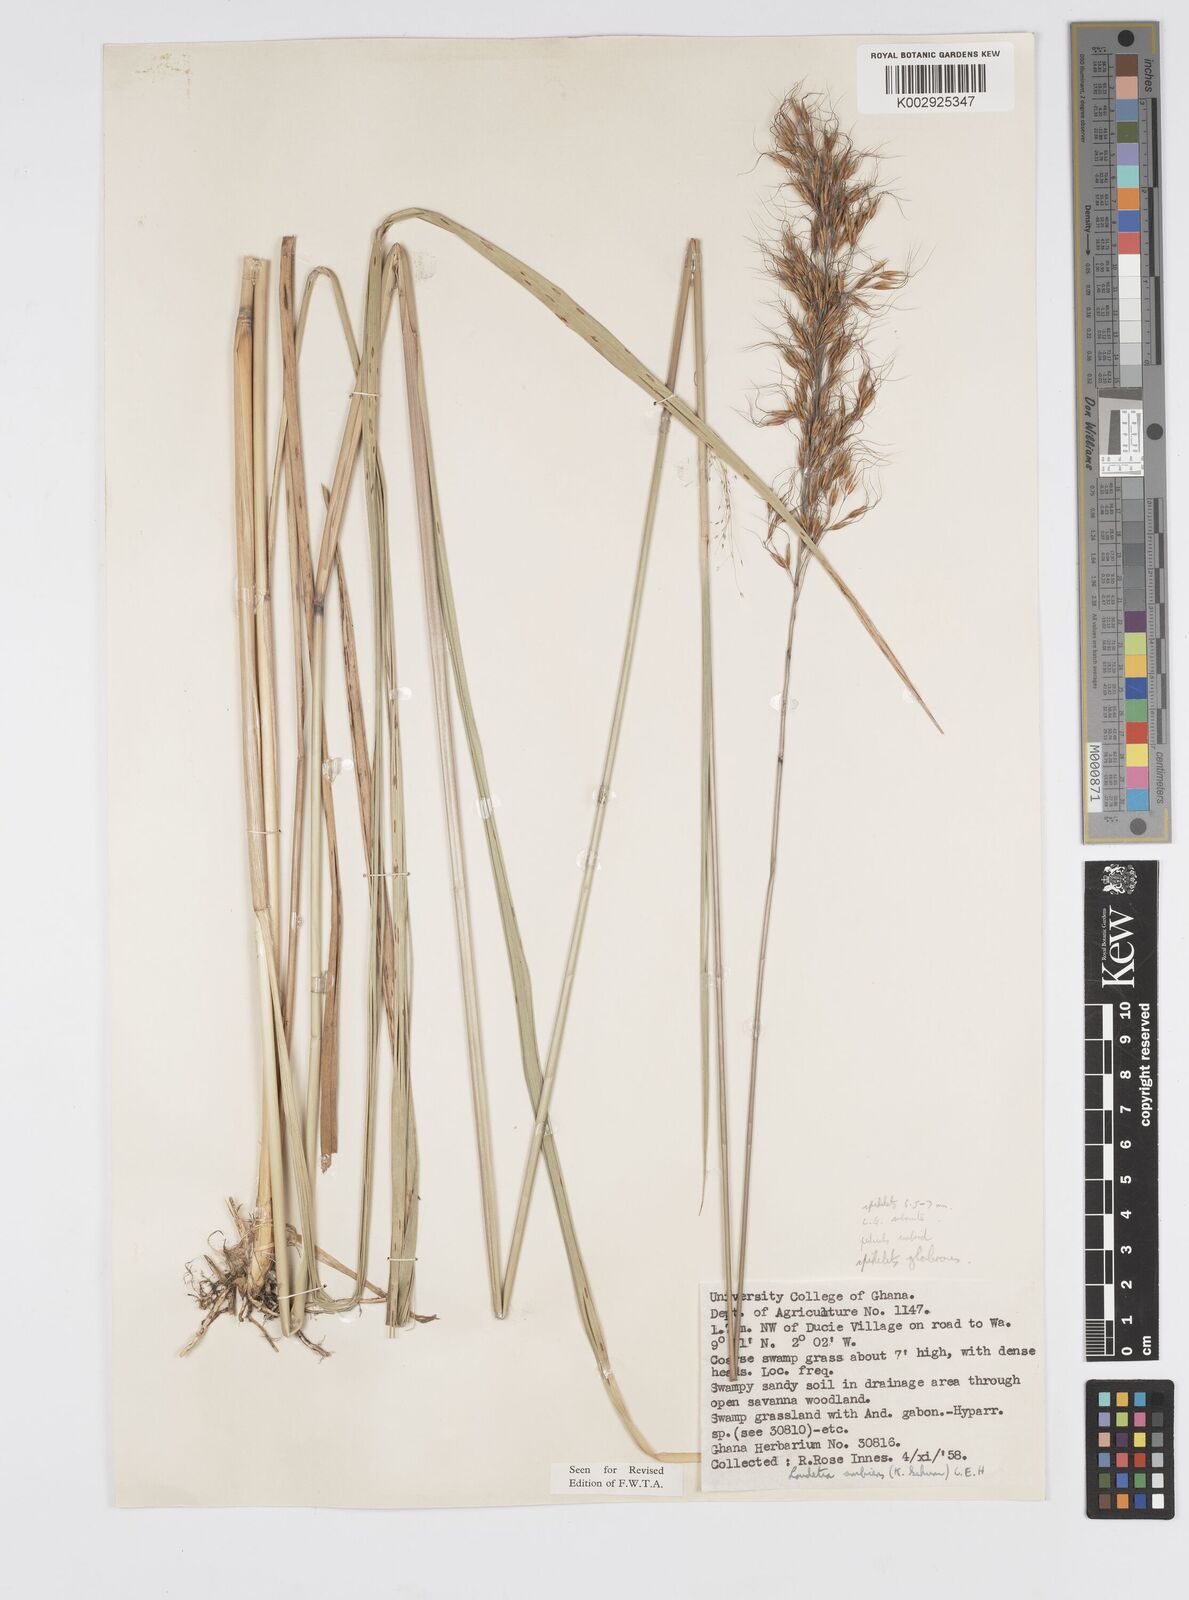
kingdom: Plantae
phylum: Tracheophyta
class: Liliopsida
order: Poales
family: Poaceae
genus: Loudetiopsis
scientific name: Loudetiopsis ambiens
